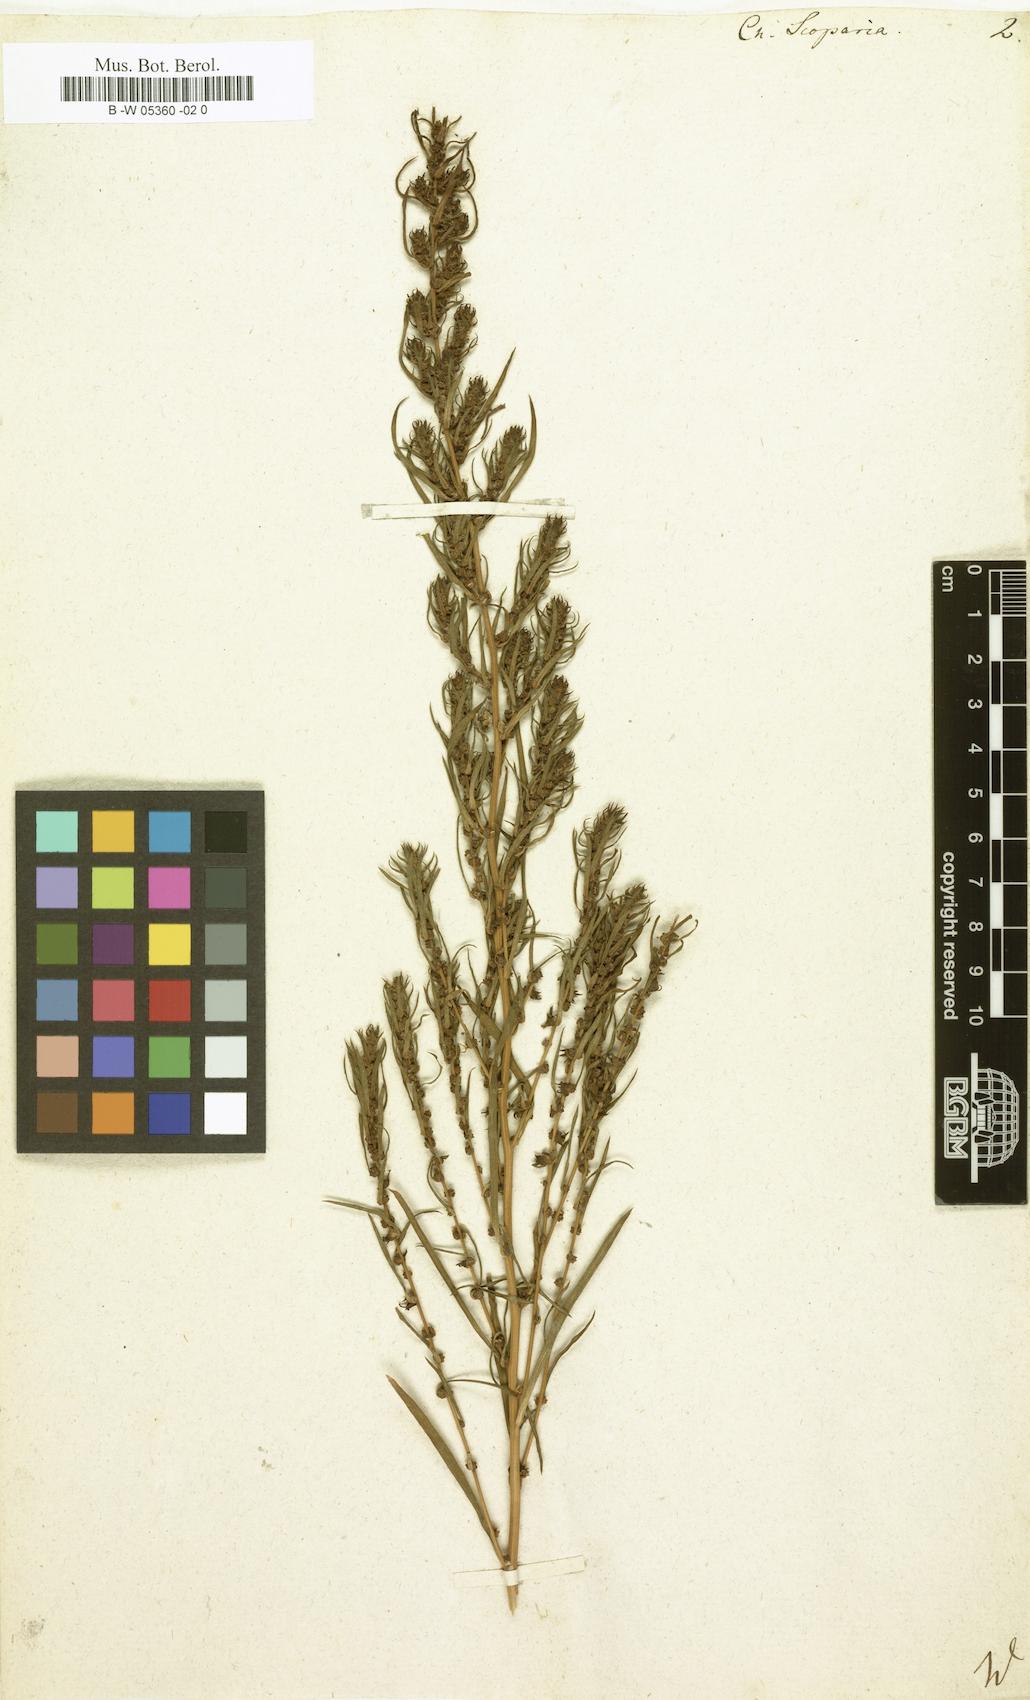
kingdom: Plantae
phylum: Tracheophyta
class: Magnoliopsida
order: Caryophyllales
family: Amaranthaceae
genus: Bassia
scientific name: Bassia scoparia
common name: Belvedere
